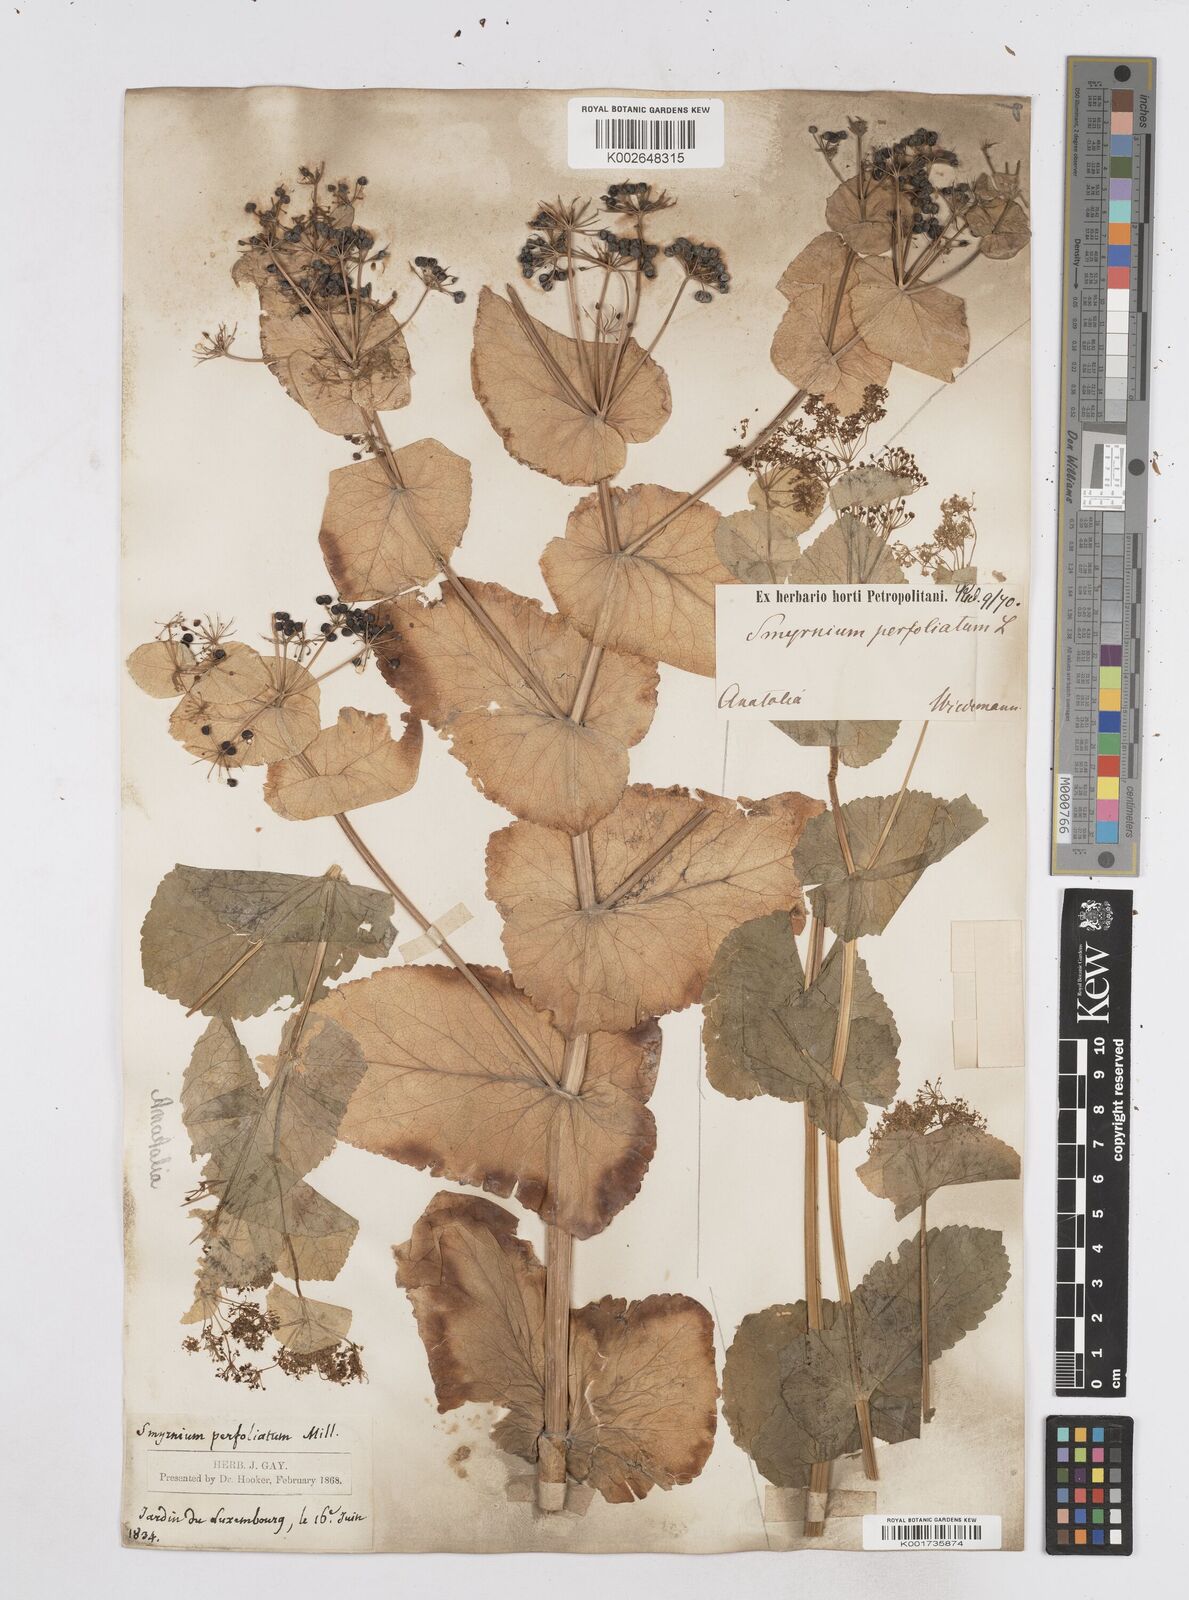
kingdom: Plantae
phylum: Tracheophyta
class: Magnoliopsida
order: Apiales
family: Apiaceae
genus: Smyrnium
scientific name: Smyrnium perfoliatum
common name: Perfoliate alexanders
